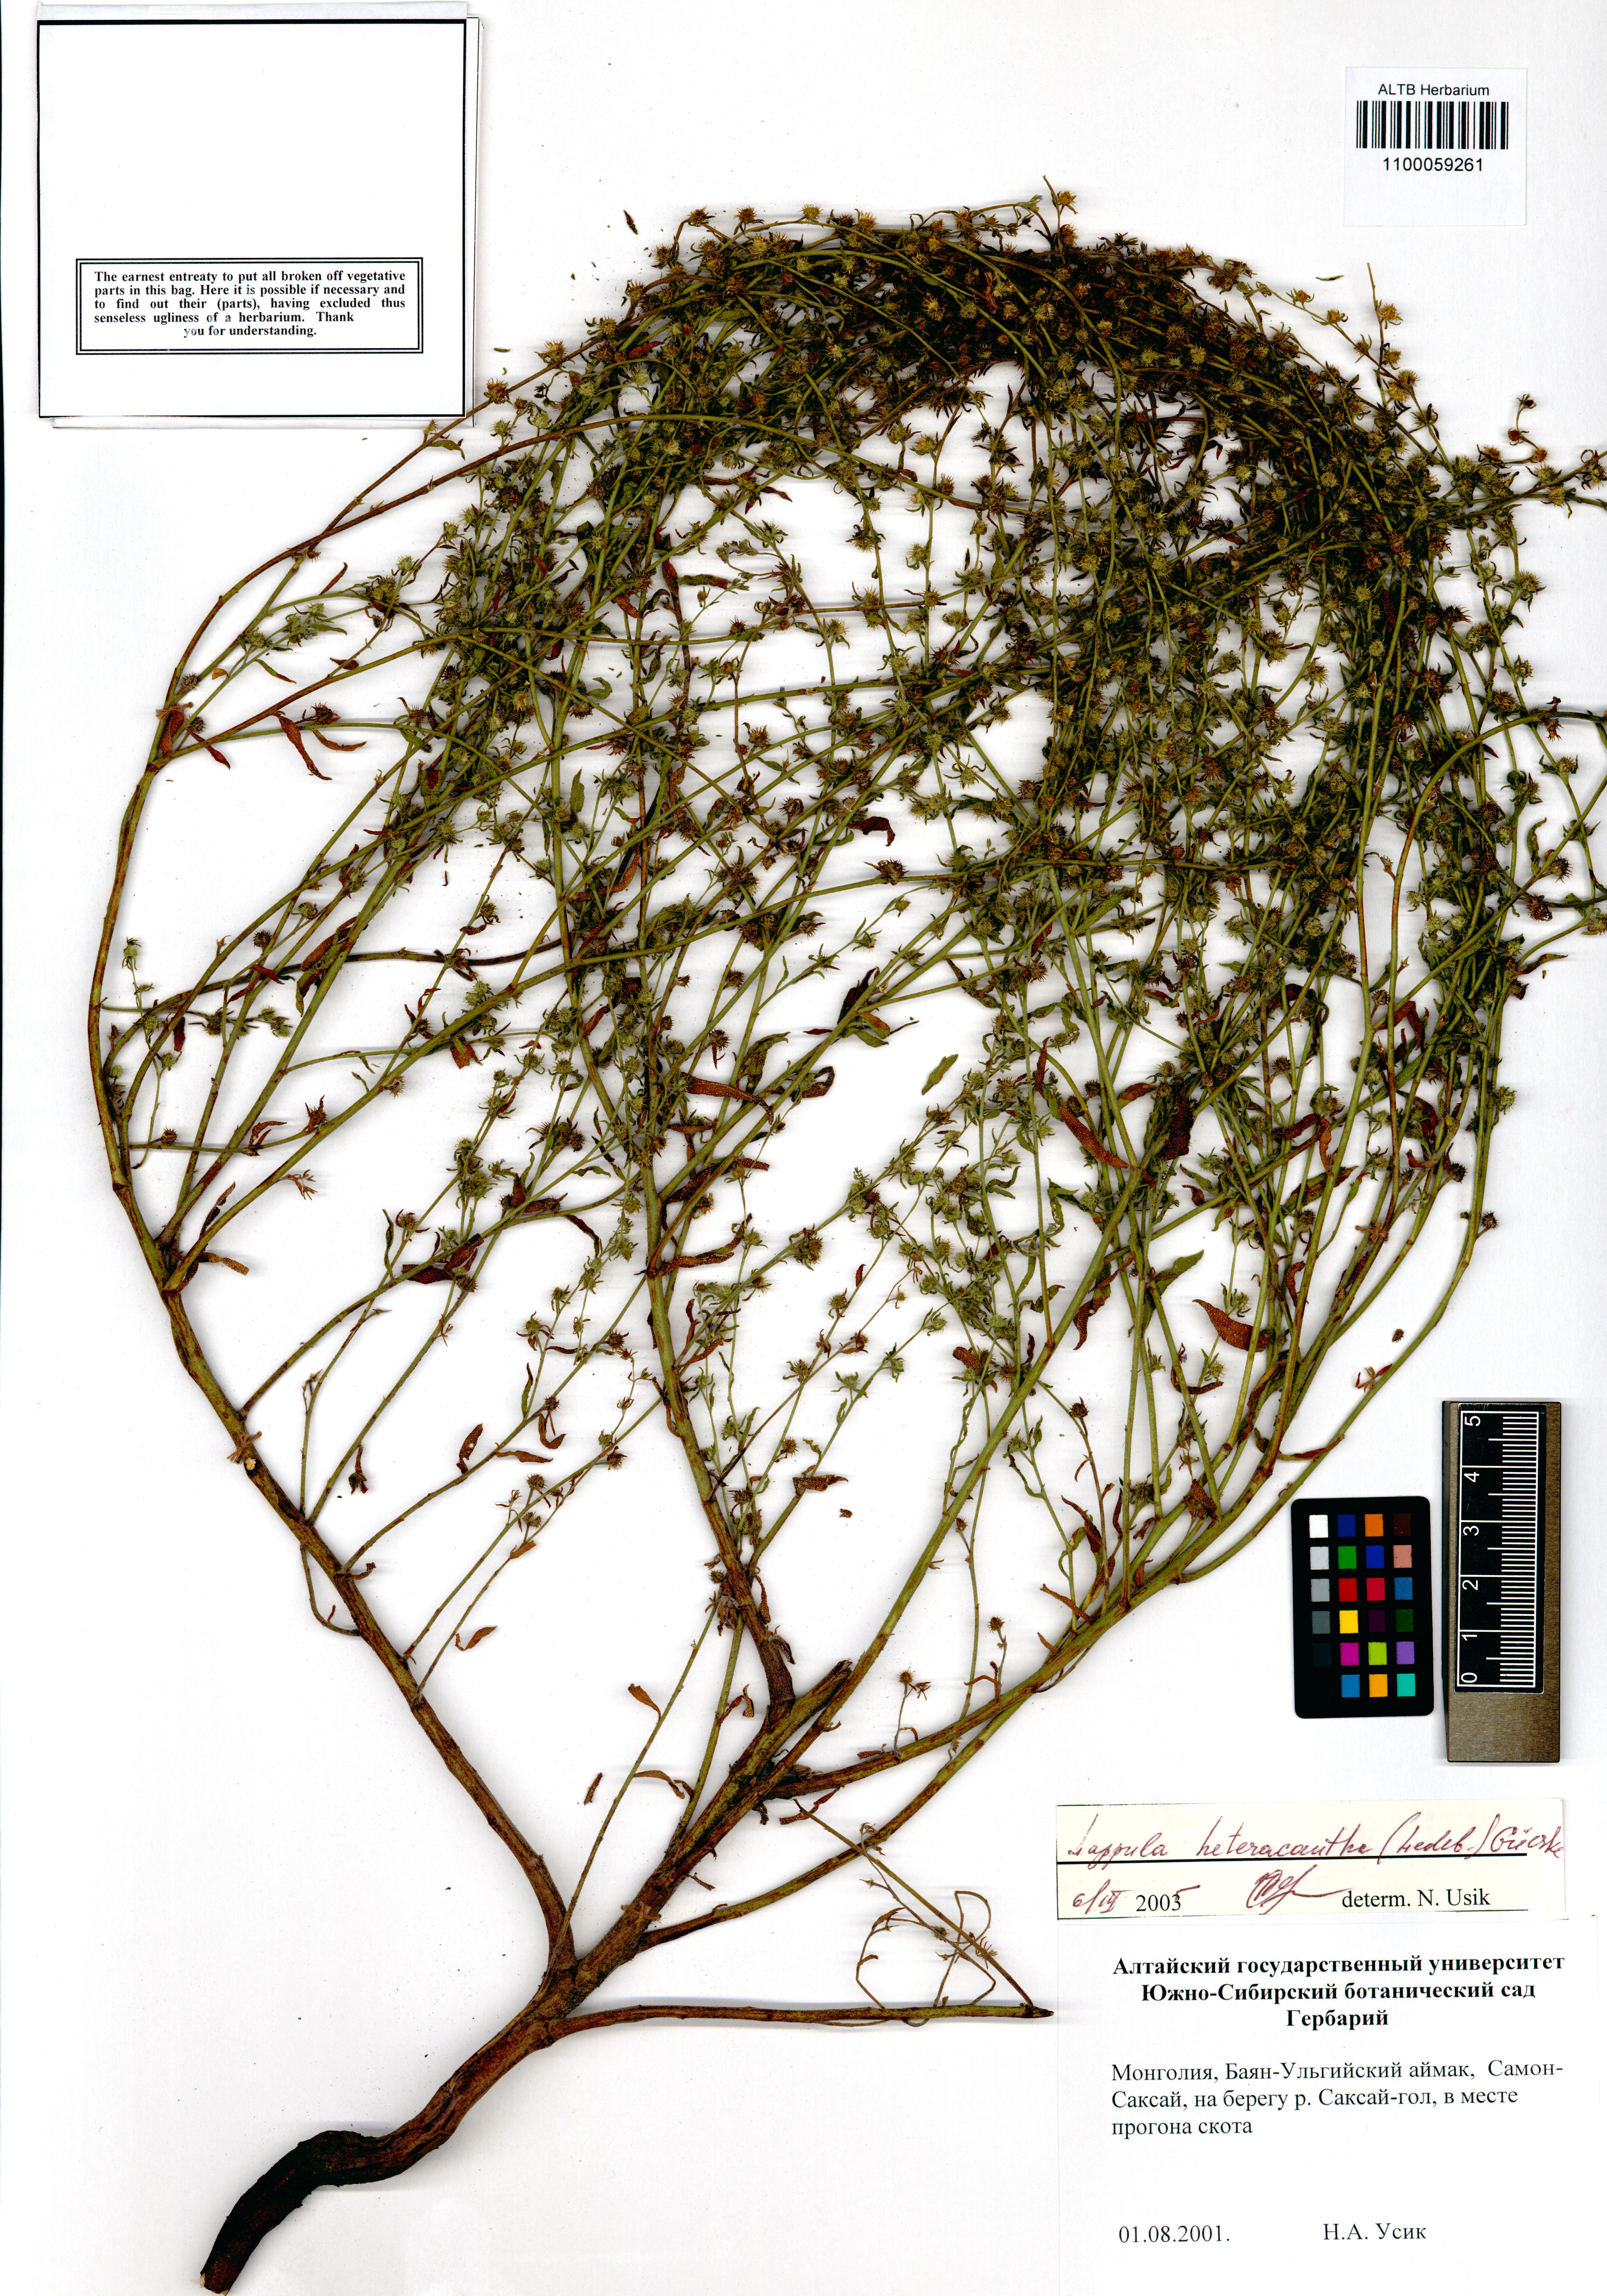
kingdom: Plantae
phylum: Tracheophyta
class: Magnoliopsida
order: Boraginales
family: Boraginaceae
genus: Lappula
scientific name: Lappula heteracantha
